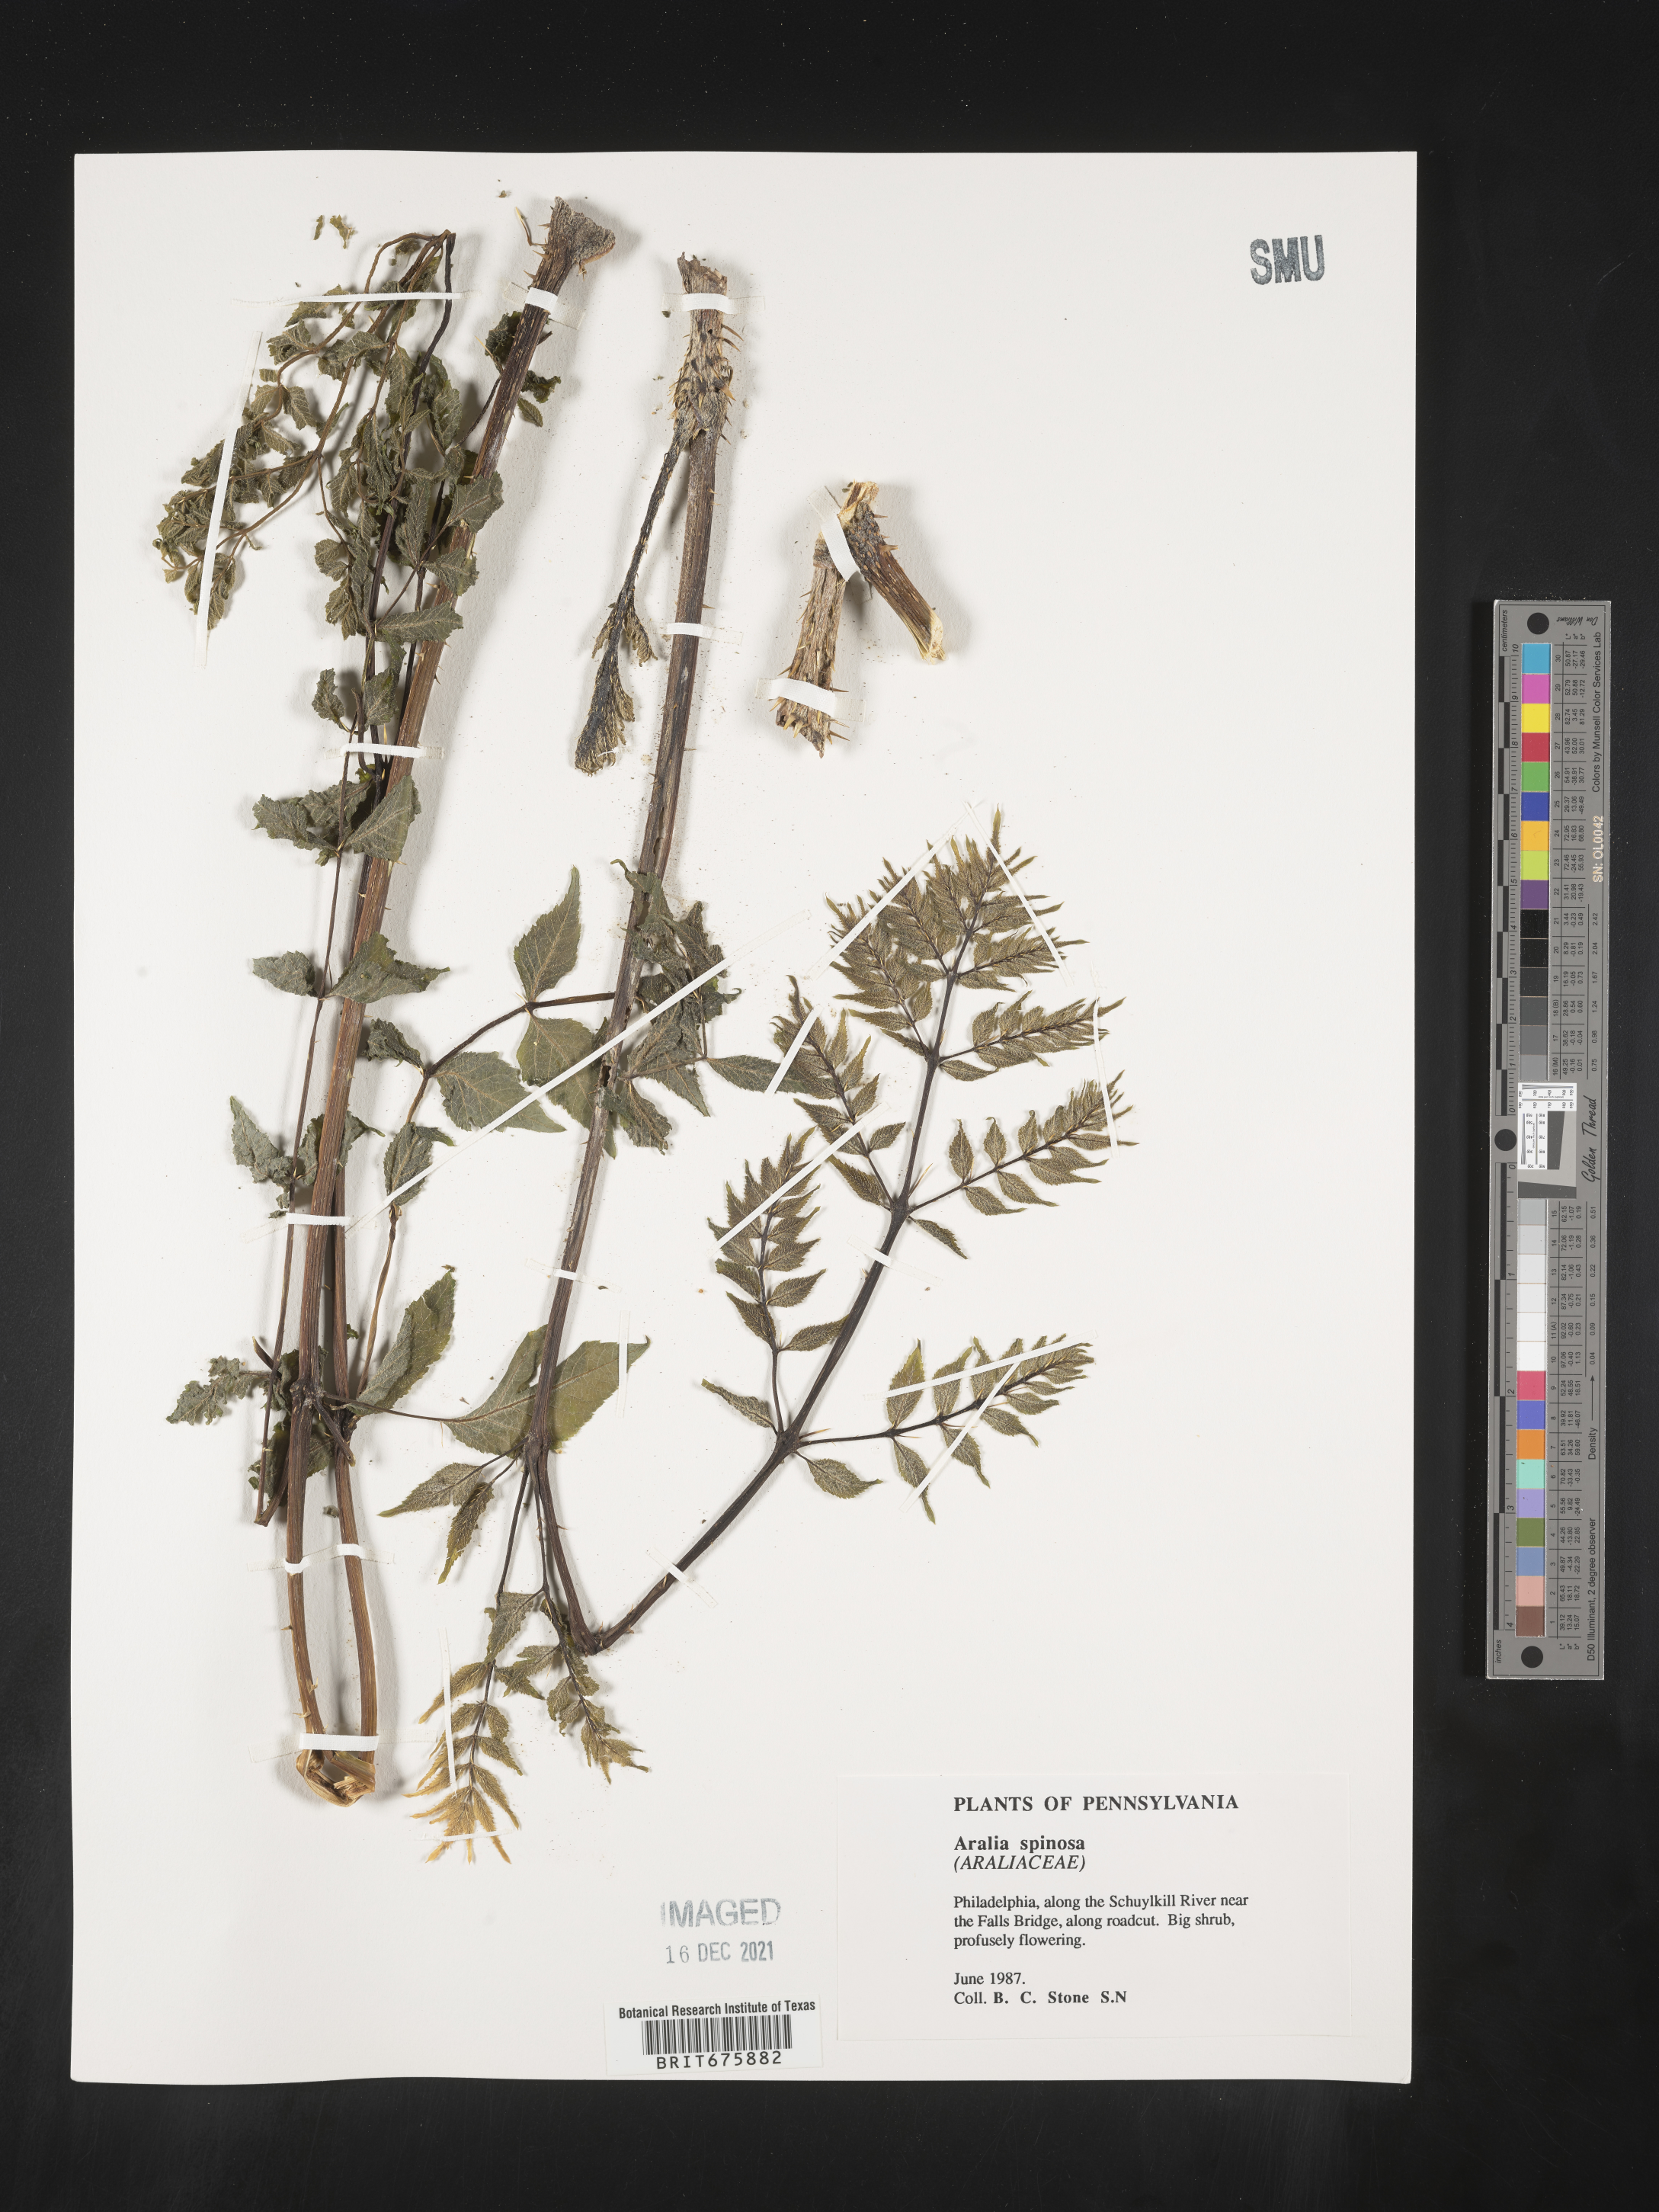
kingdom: Plantae
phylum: Tracheophyta
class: Magnoliopsida
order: Apiales
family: Araliaceae
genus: Aralia
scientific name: Aralia spinosa
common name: Hercules'-club
